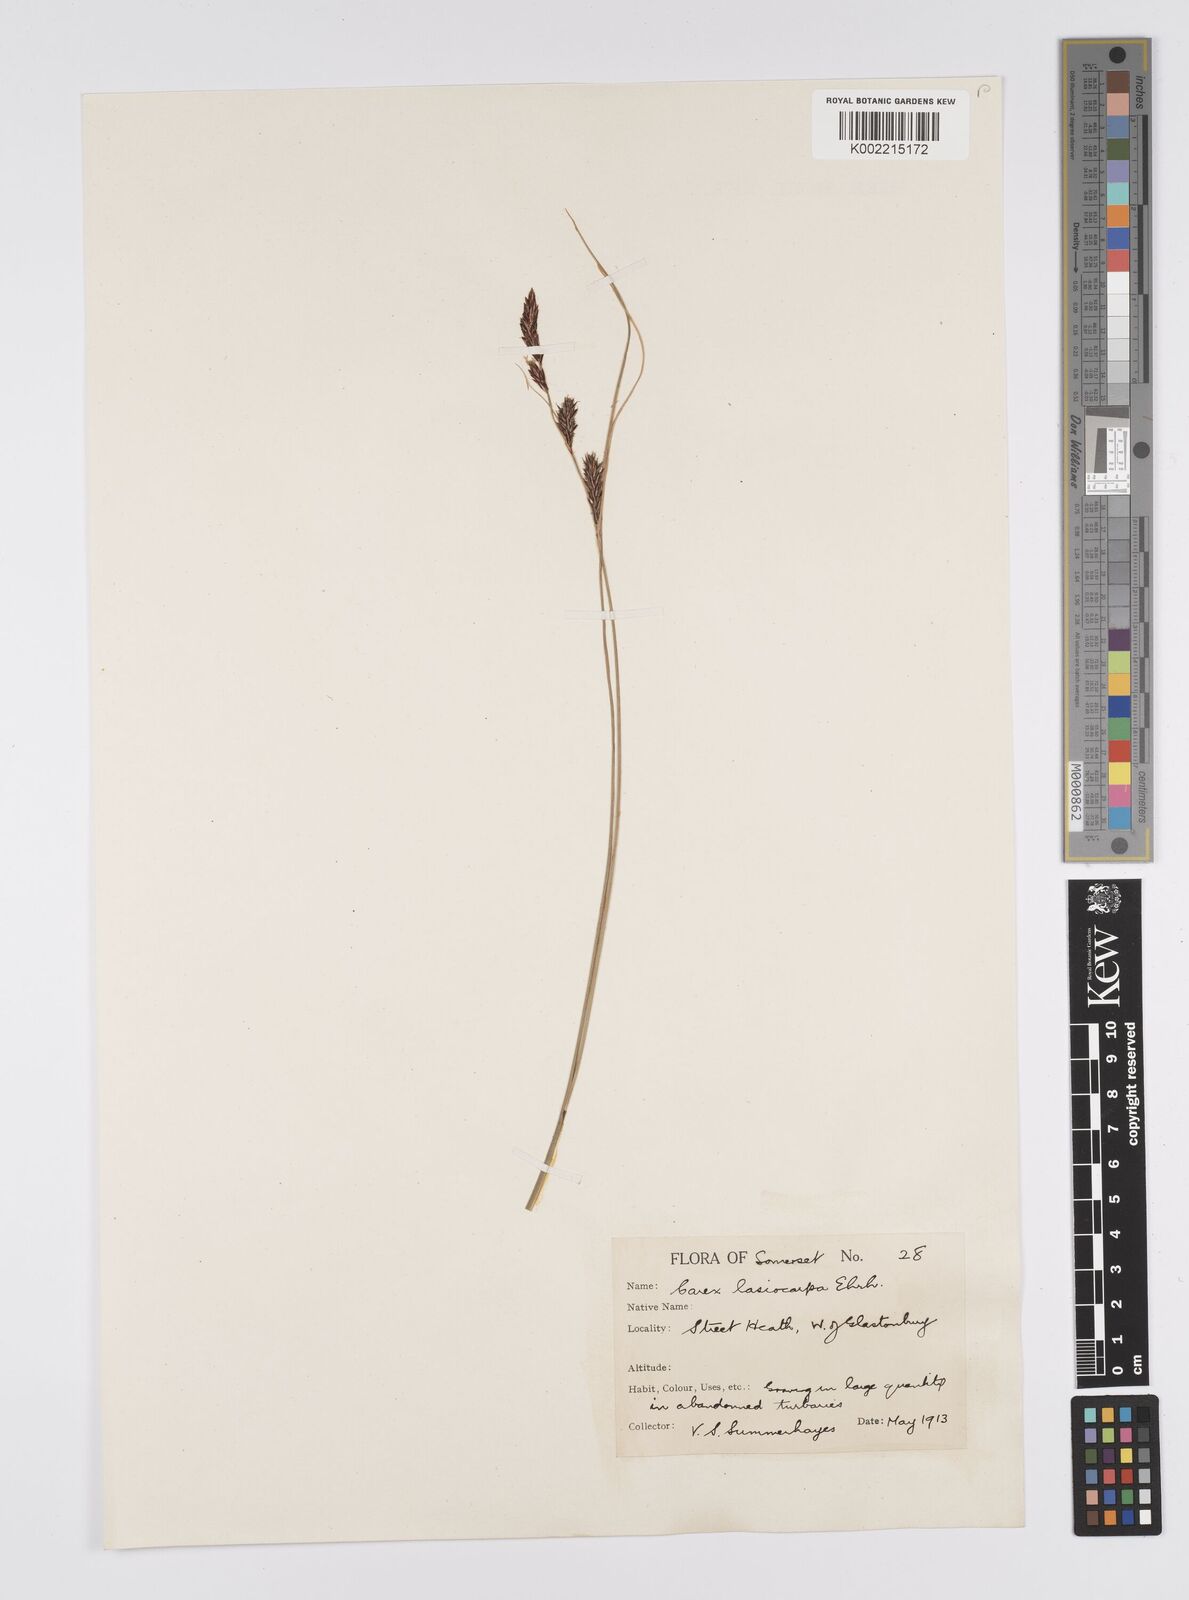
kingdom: Plantae
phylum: Tracheophyta
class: Liliopsida
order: Poales
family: Cyperaceae
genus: Carex
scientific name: Carex lasiocarpa
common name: Slender sedge
